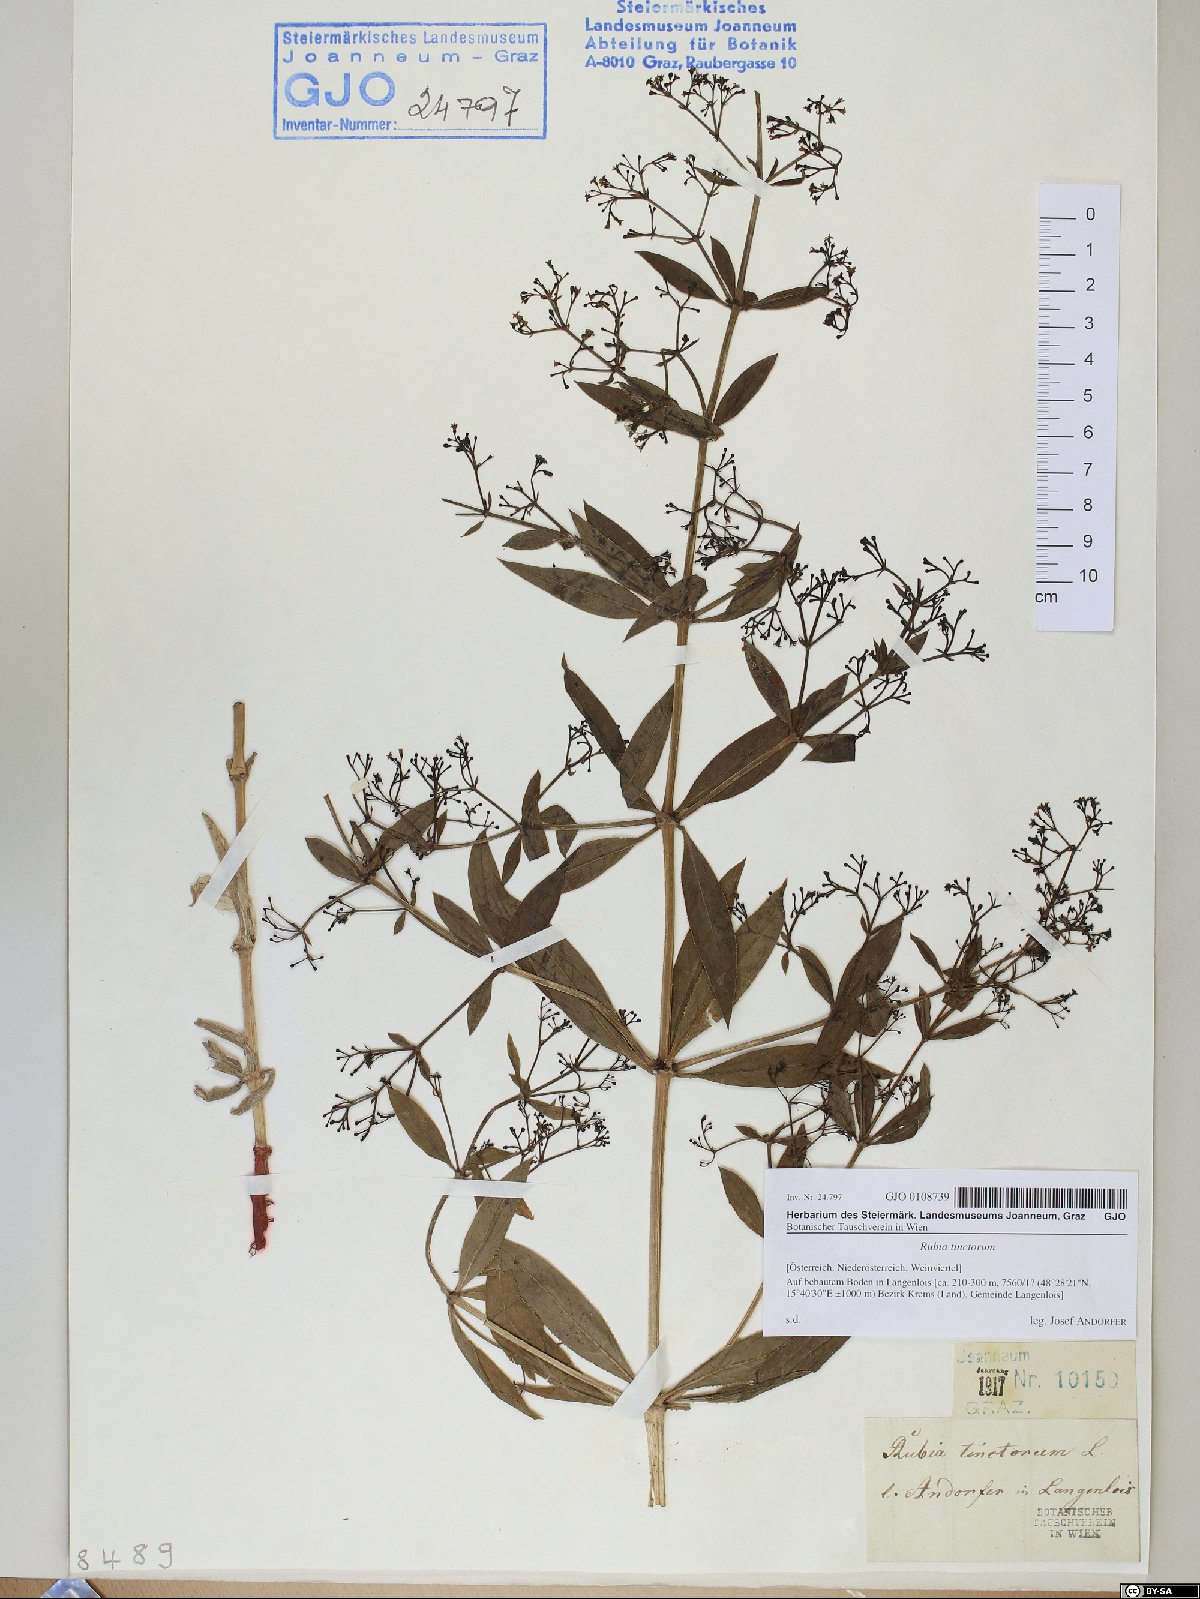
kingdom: Plantae
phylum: Tracheophyta
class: Magnoliopsida
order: Gentianales
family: Rubiaceae
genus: Rubia
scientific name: Rubia tinctorum
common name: Dyer's madder
